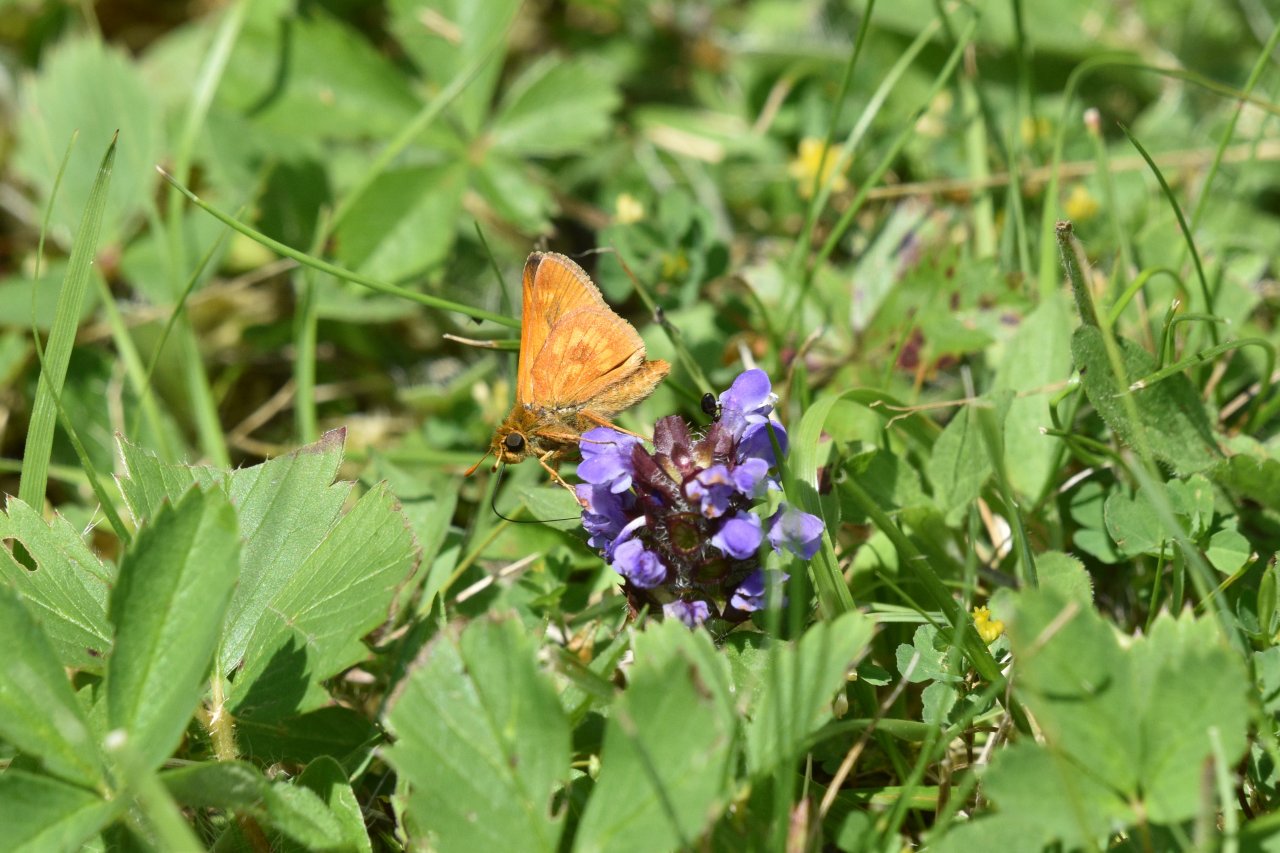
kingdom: Animalia
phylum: Arthropoda
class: Insecta
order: Lepidoptera
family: Hesperiidae
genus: Polites
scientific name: Polites
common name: Long Dash Skipper
